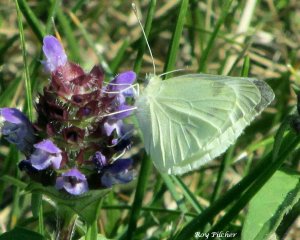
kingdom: Animalia
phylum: Arthropoda
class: Insecta
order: Lepidoptera
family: Pieridae
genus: Pieris
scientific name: Pieris rapae
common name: Cabbage White
